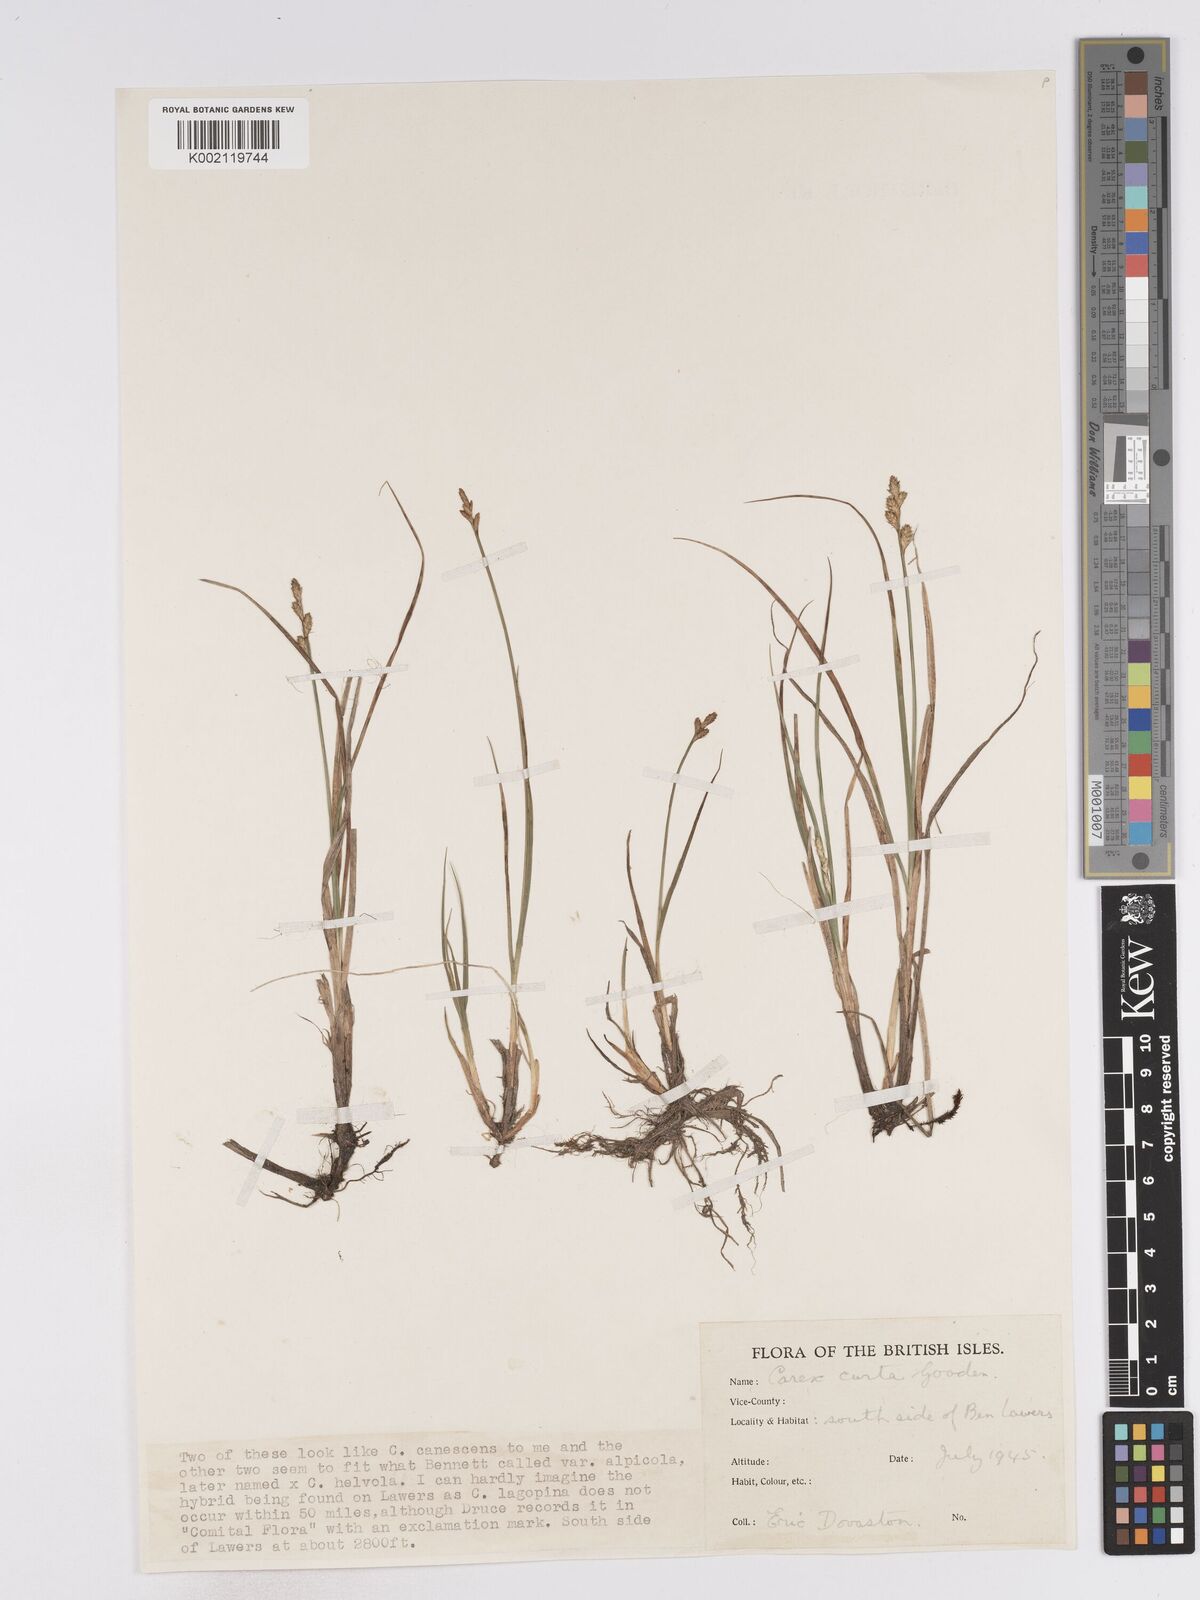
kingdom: Plantae
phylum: Tracheophyta
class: Liliopsida
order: Poales
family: Cyperaceae
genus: Carex
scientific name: Carex curta
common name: White sedge
